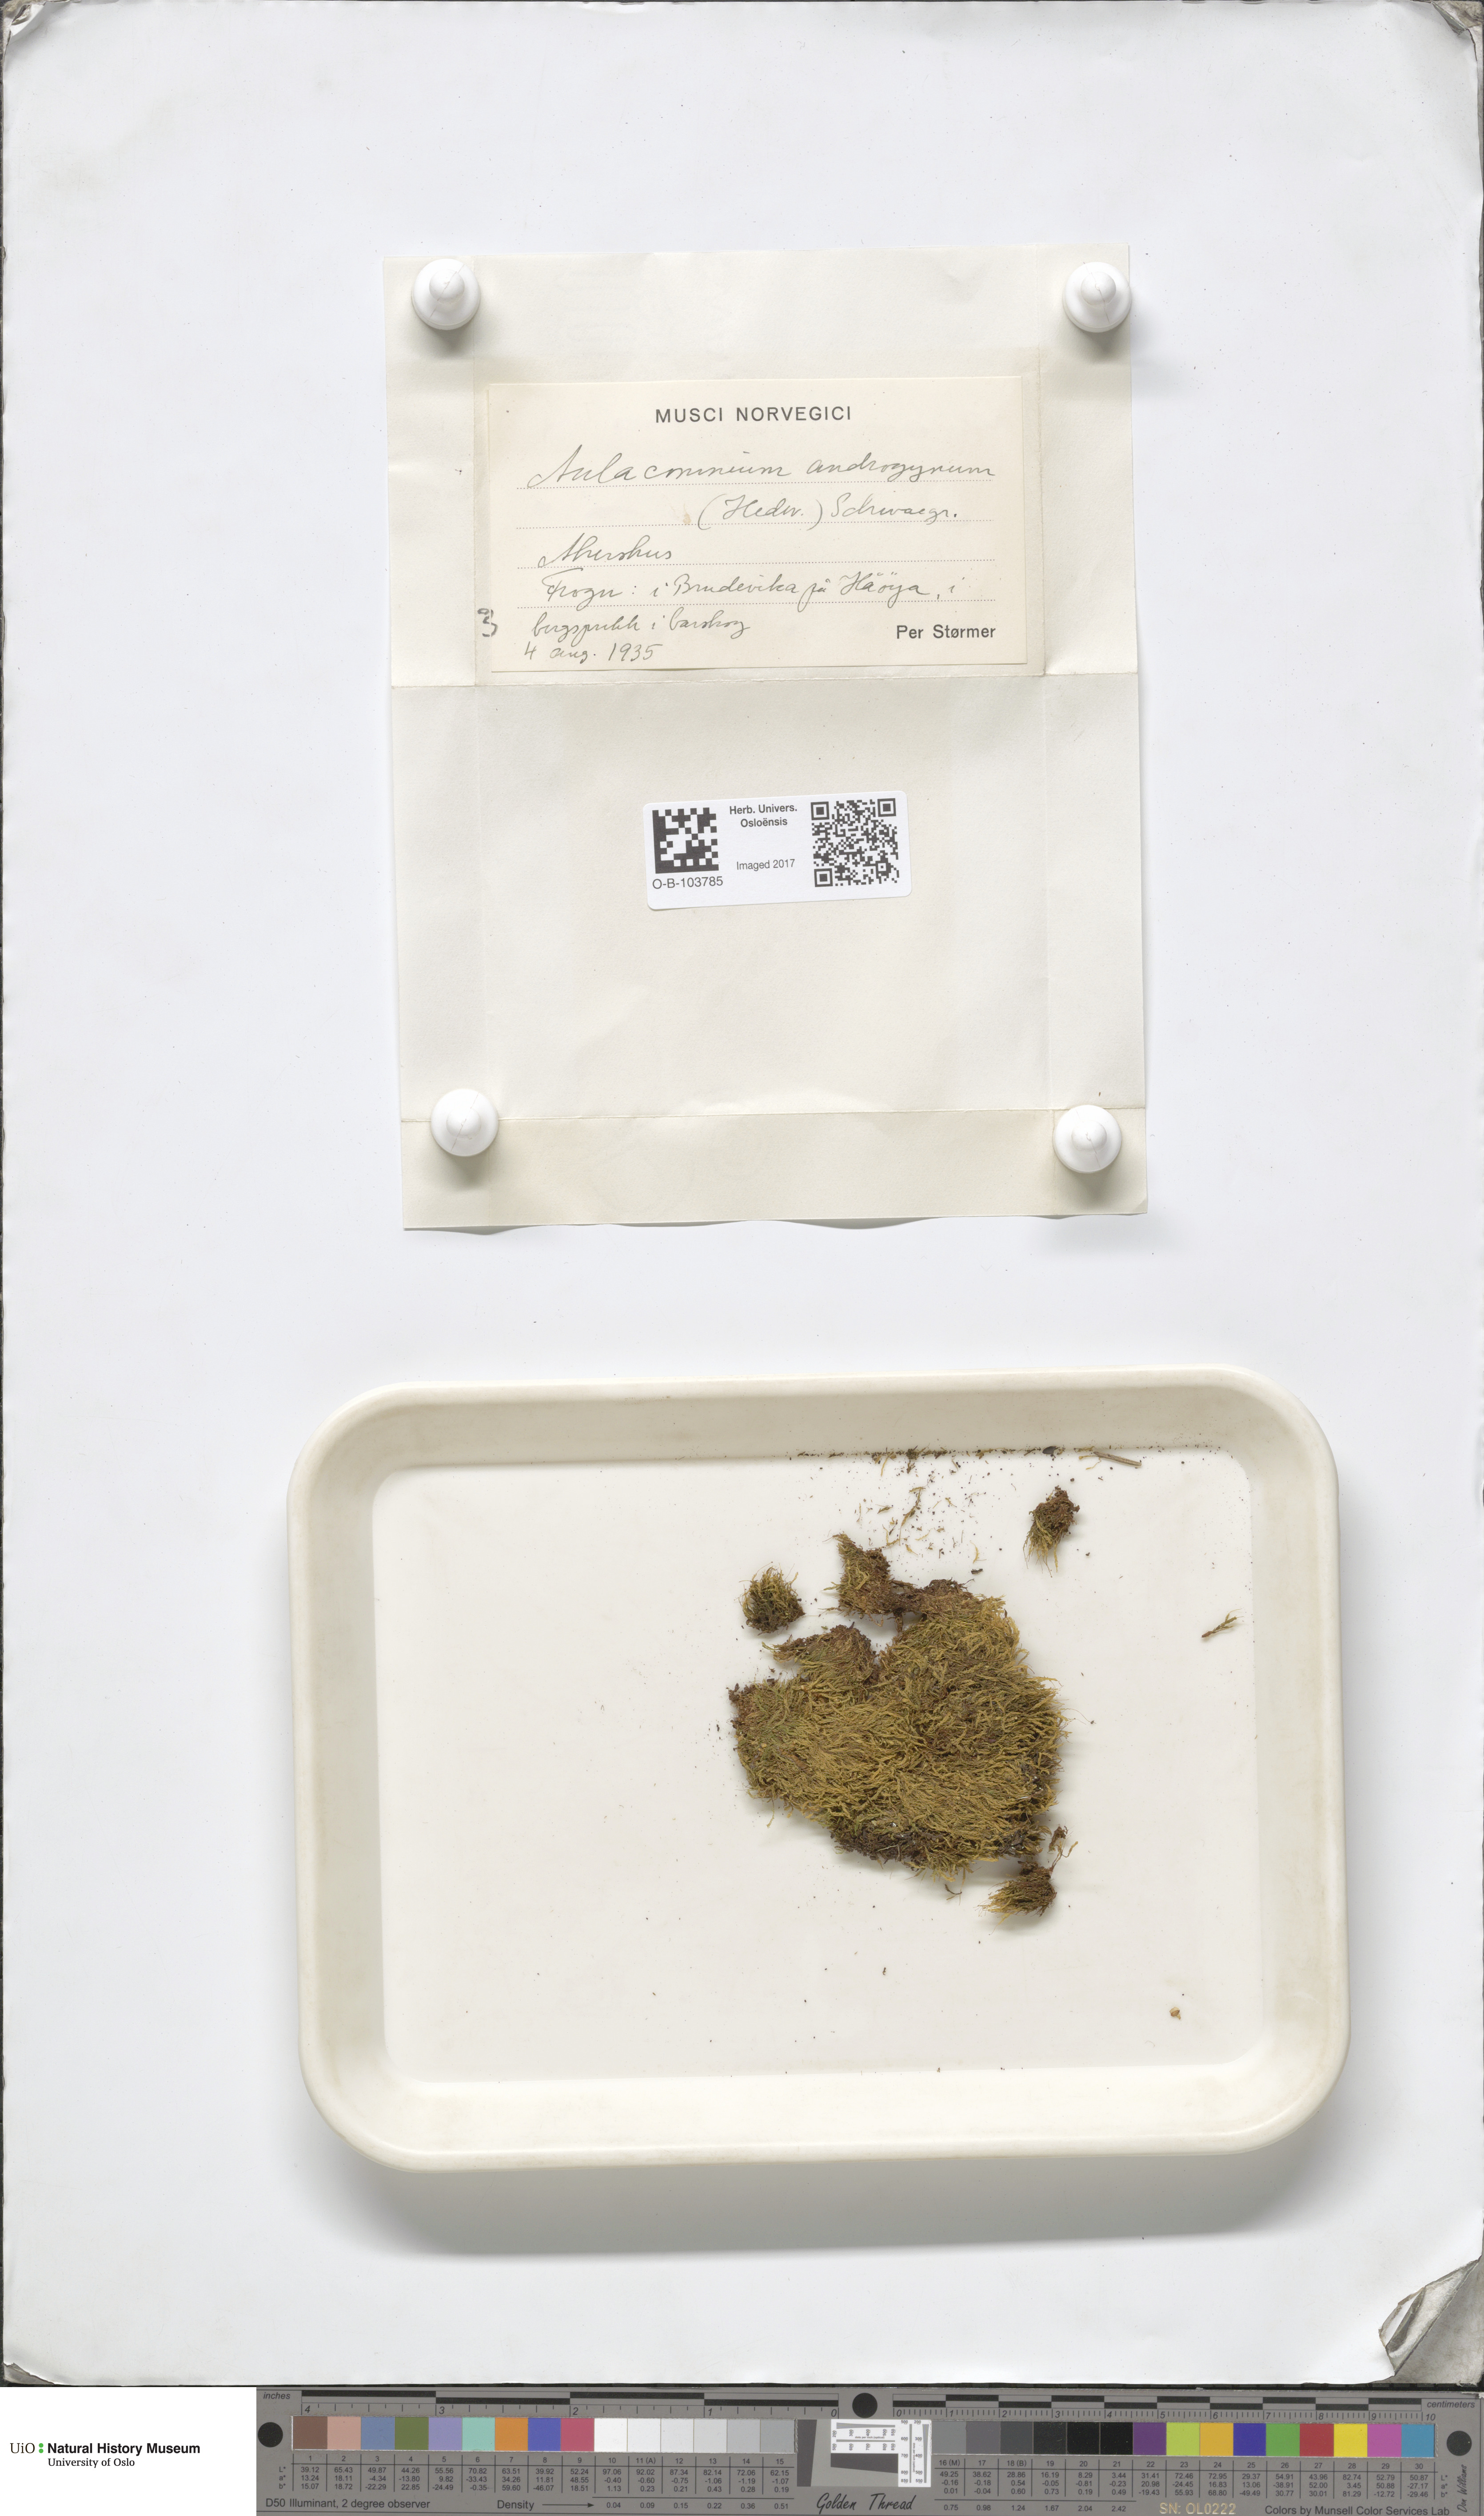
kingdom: Plantae
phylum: Bryophyta
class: Bryopsida
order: Aulacomniales
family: Aulacomniaceae
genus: Aulacomnium
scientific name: Aulacomnium androgynum
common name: Little groove moss
